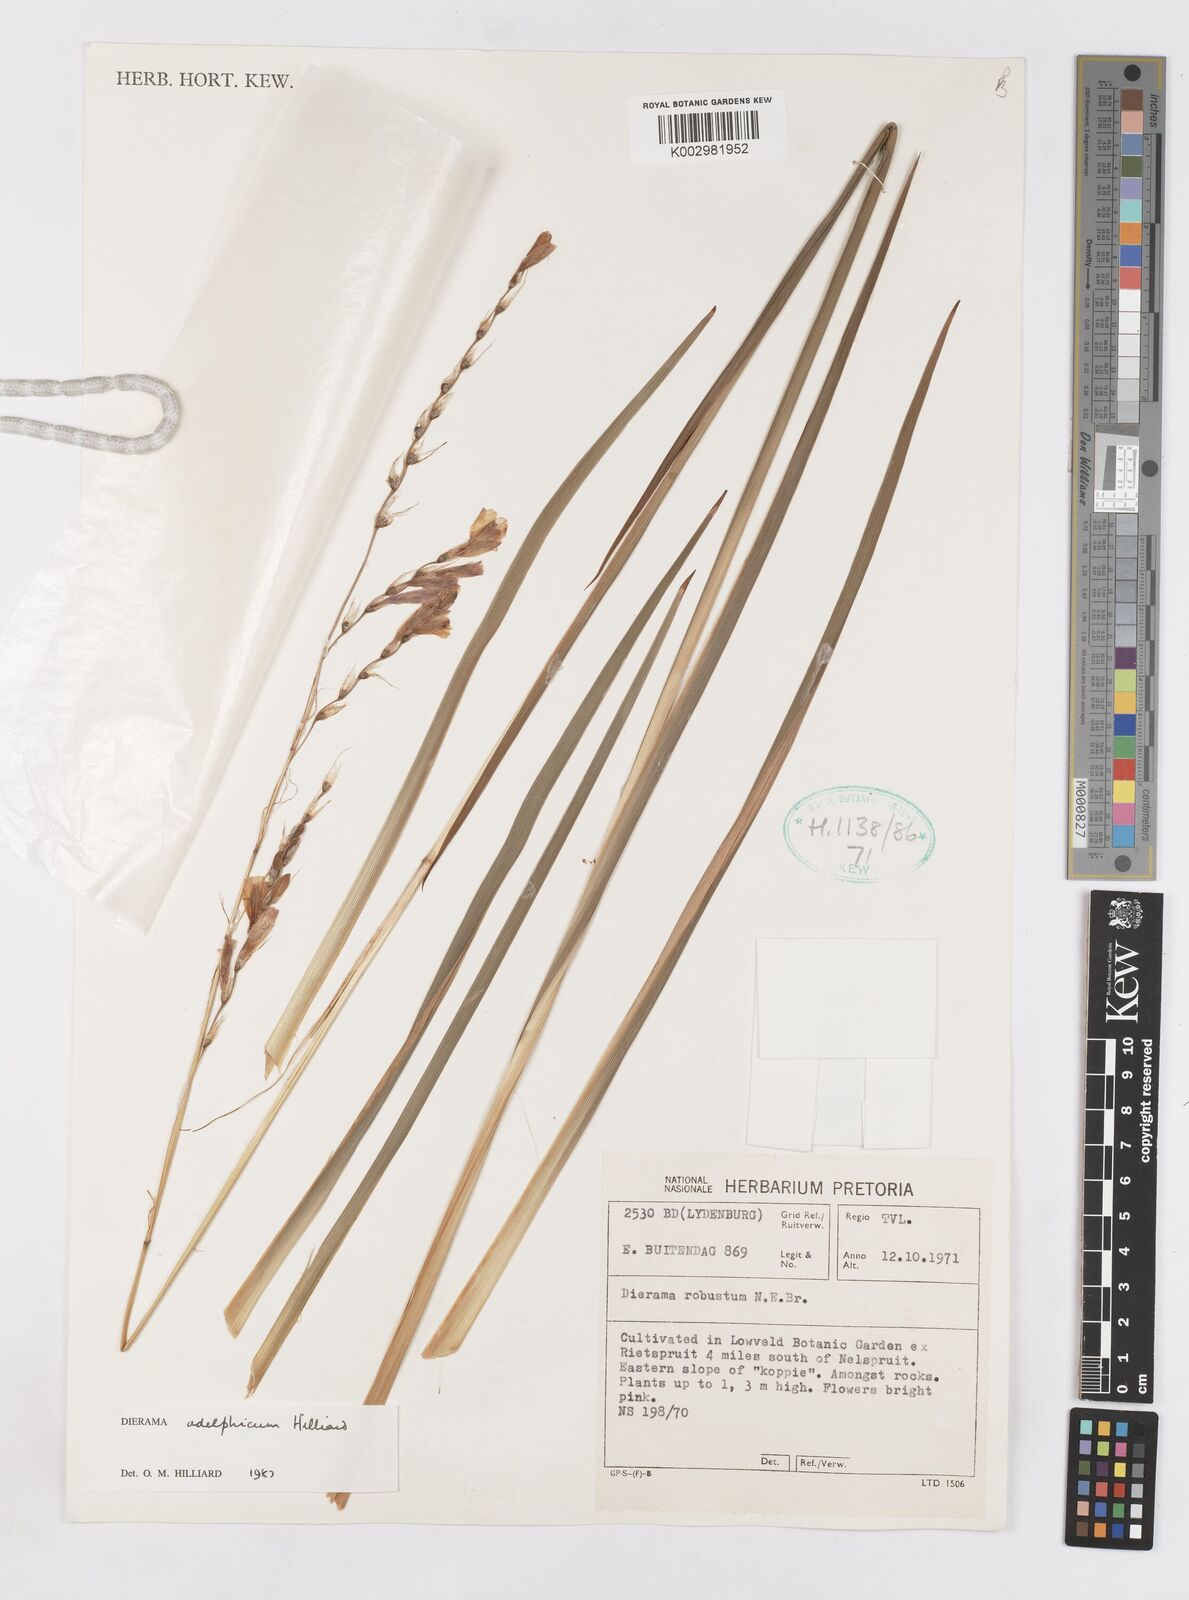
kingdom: Plantae
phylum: Tracheophyta
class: Liliopsida
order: Asparagales
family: Iridaceae
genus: Dierama
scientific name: Dierama adelphicum
